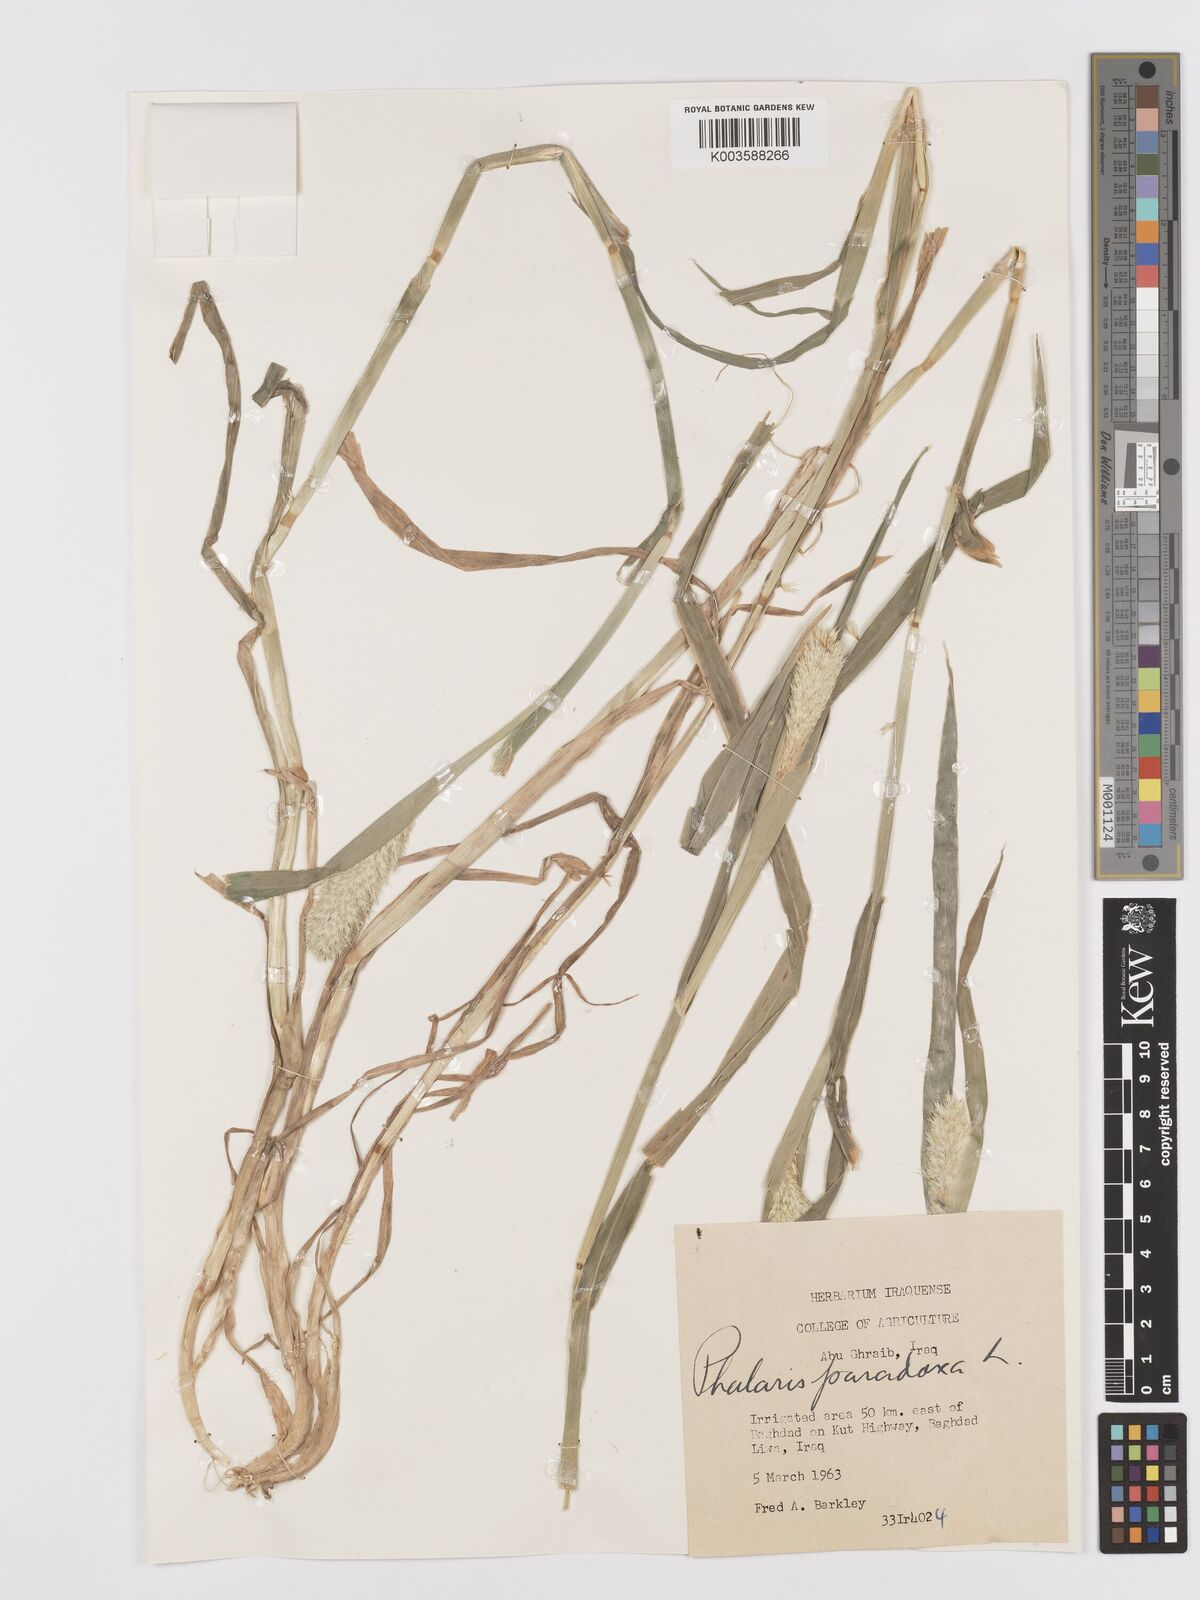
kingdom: Plantae
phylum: Tracheophyta
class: Liliopsida
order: Poales
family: Poaceae
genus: Phalaris
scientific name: Phalaris paradoxa
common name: Awned canary-grass
